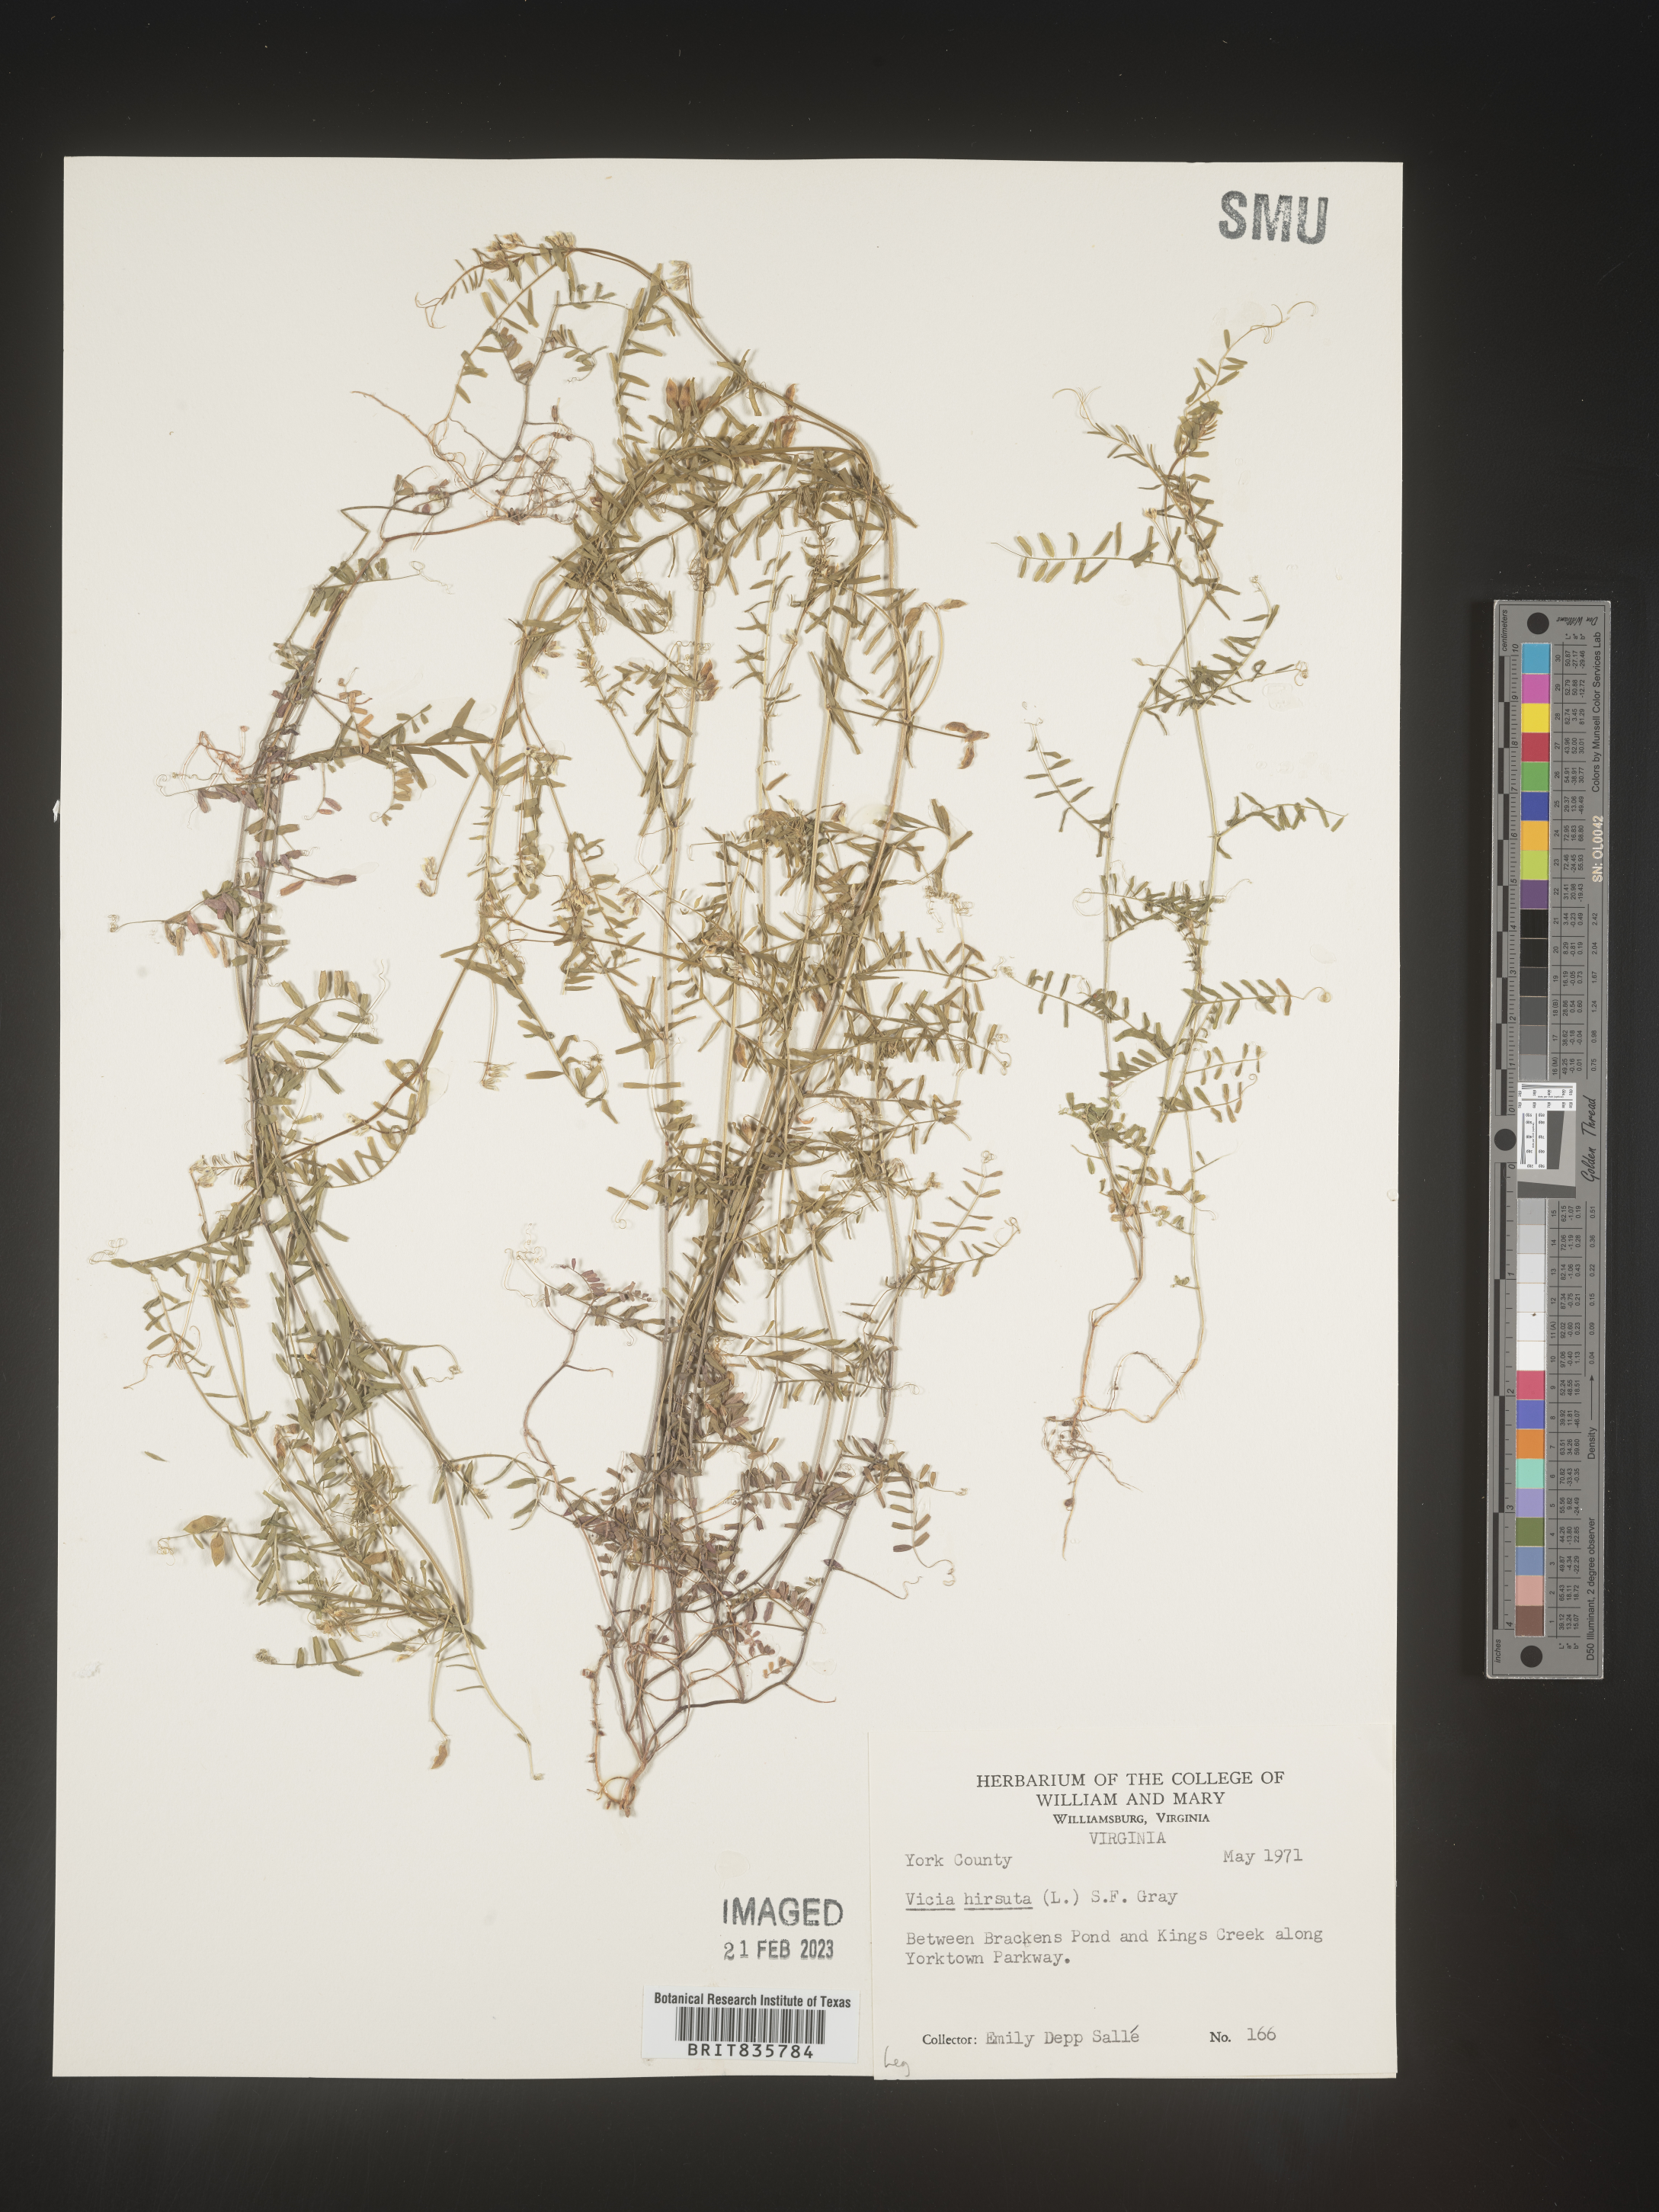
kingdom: Plantae
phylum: Tracheophyta
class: Magnoliopsida
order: Fabales
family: Fabaceae
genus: Vicia
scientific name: Vicia
